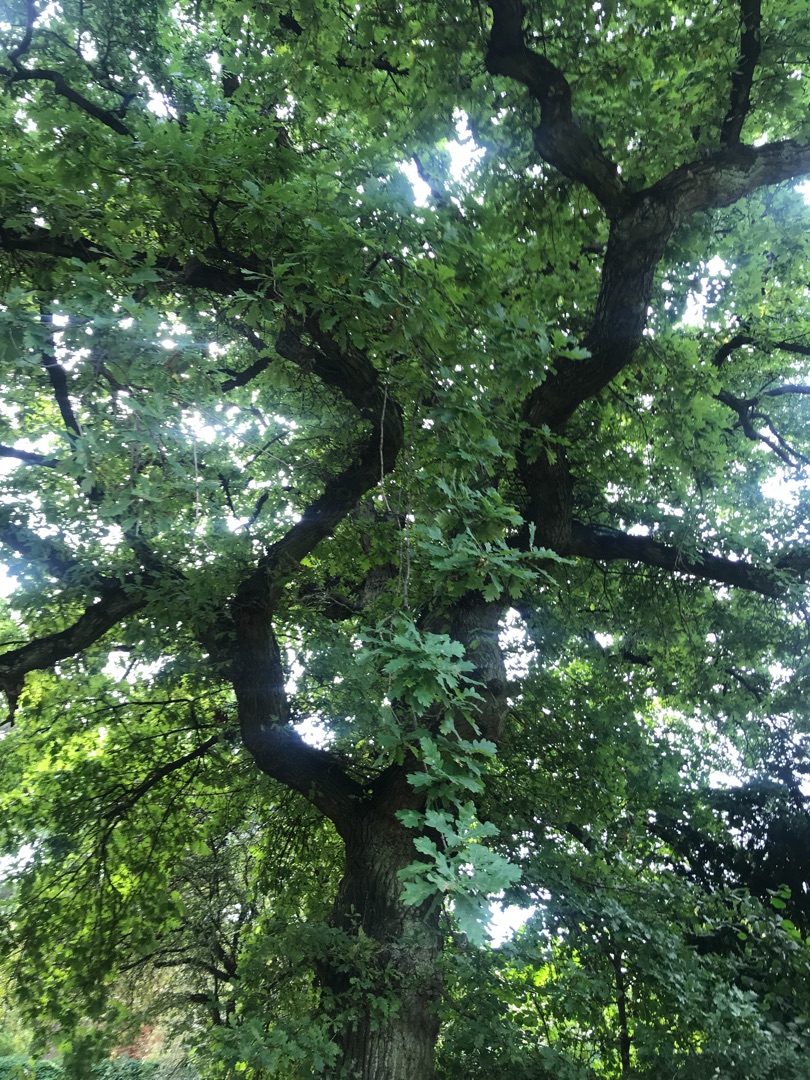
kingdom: Plantae
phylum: Tracheophyta
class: Magnoliopsida
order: Fagales
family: Fagaceae
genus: Quercus
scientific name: Quercus robur
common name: Stilk-eg/almindelig eg
